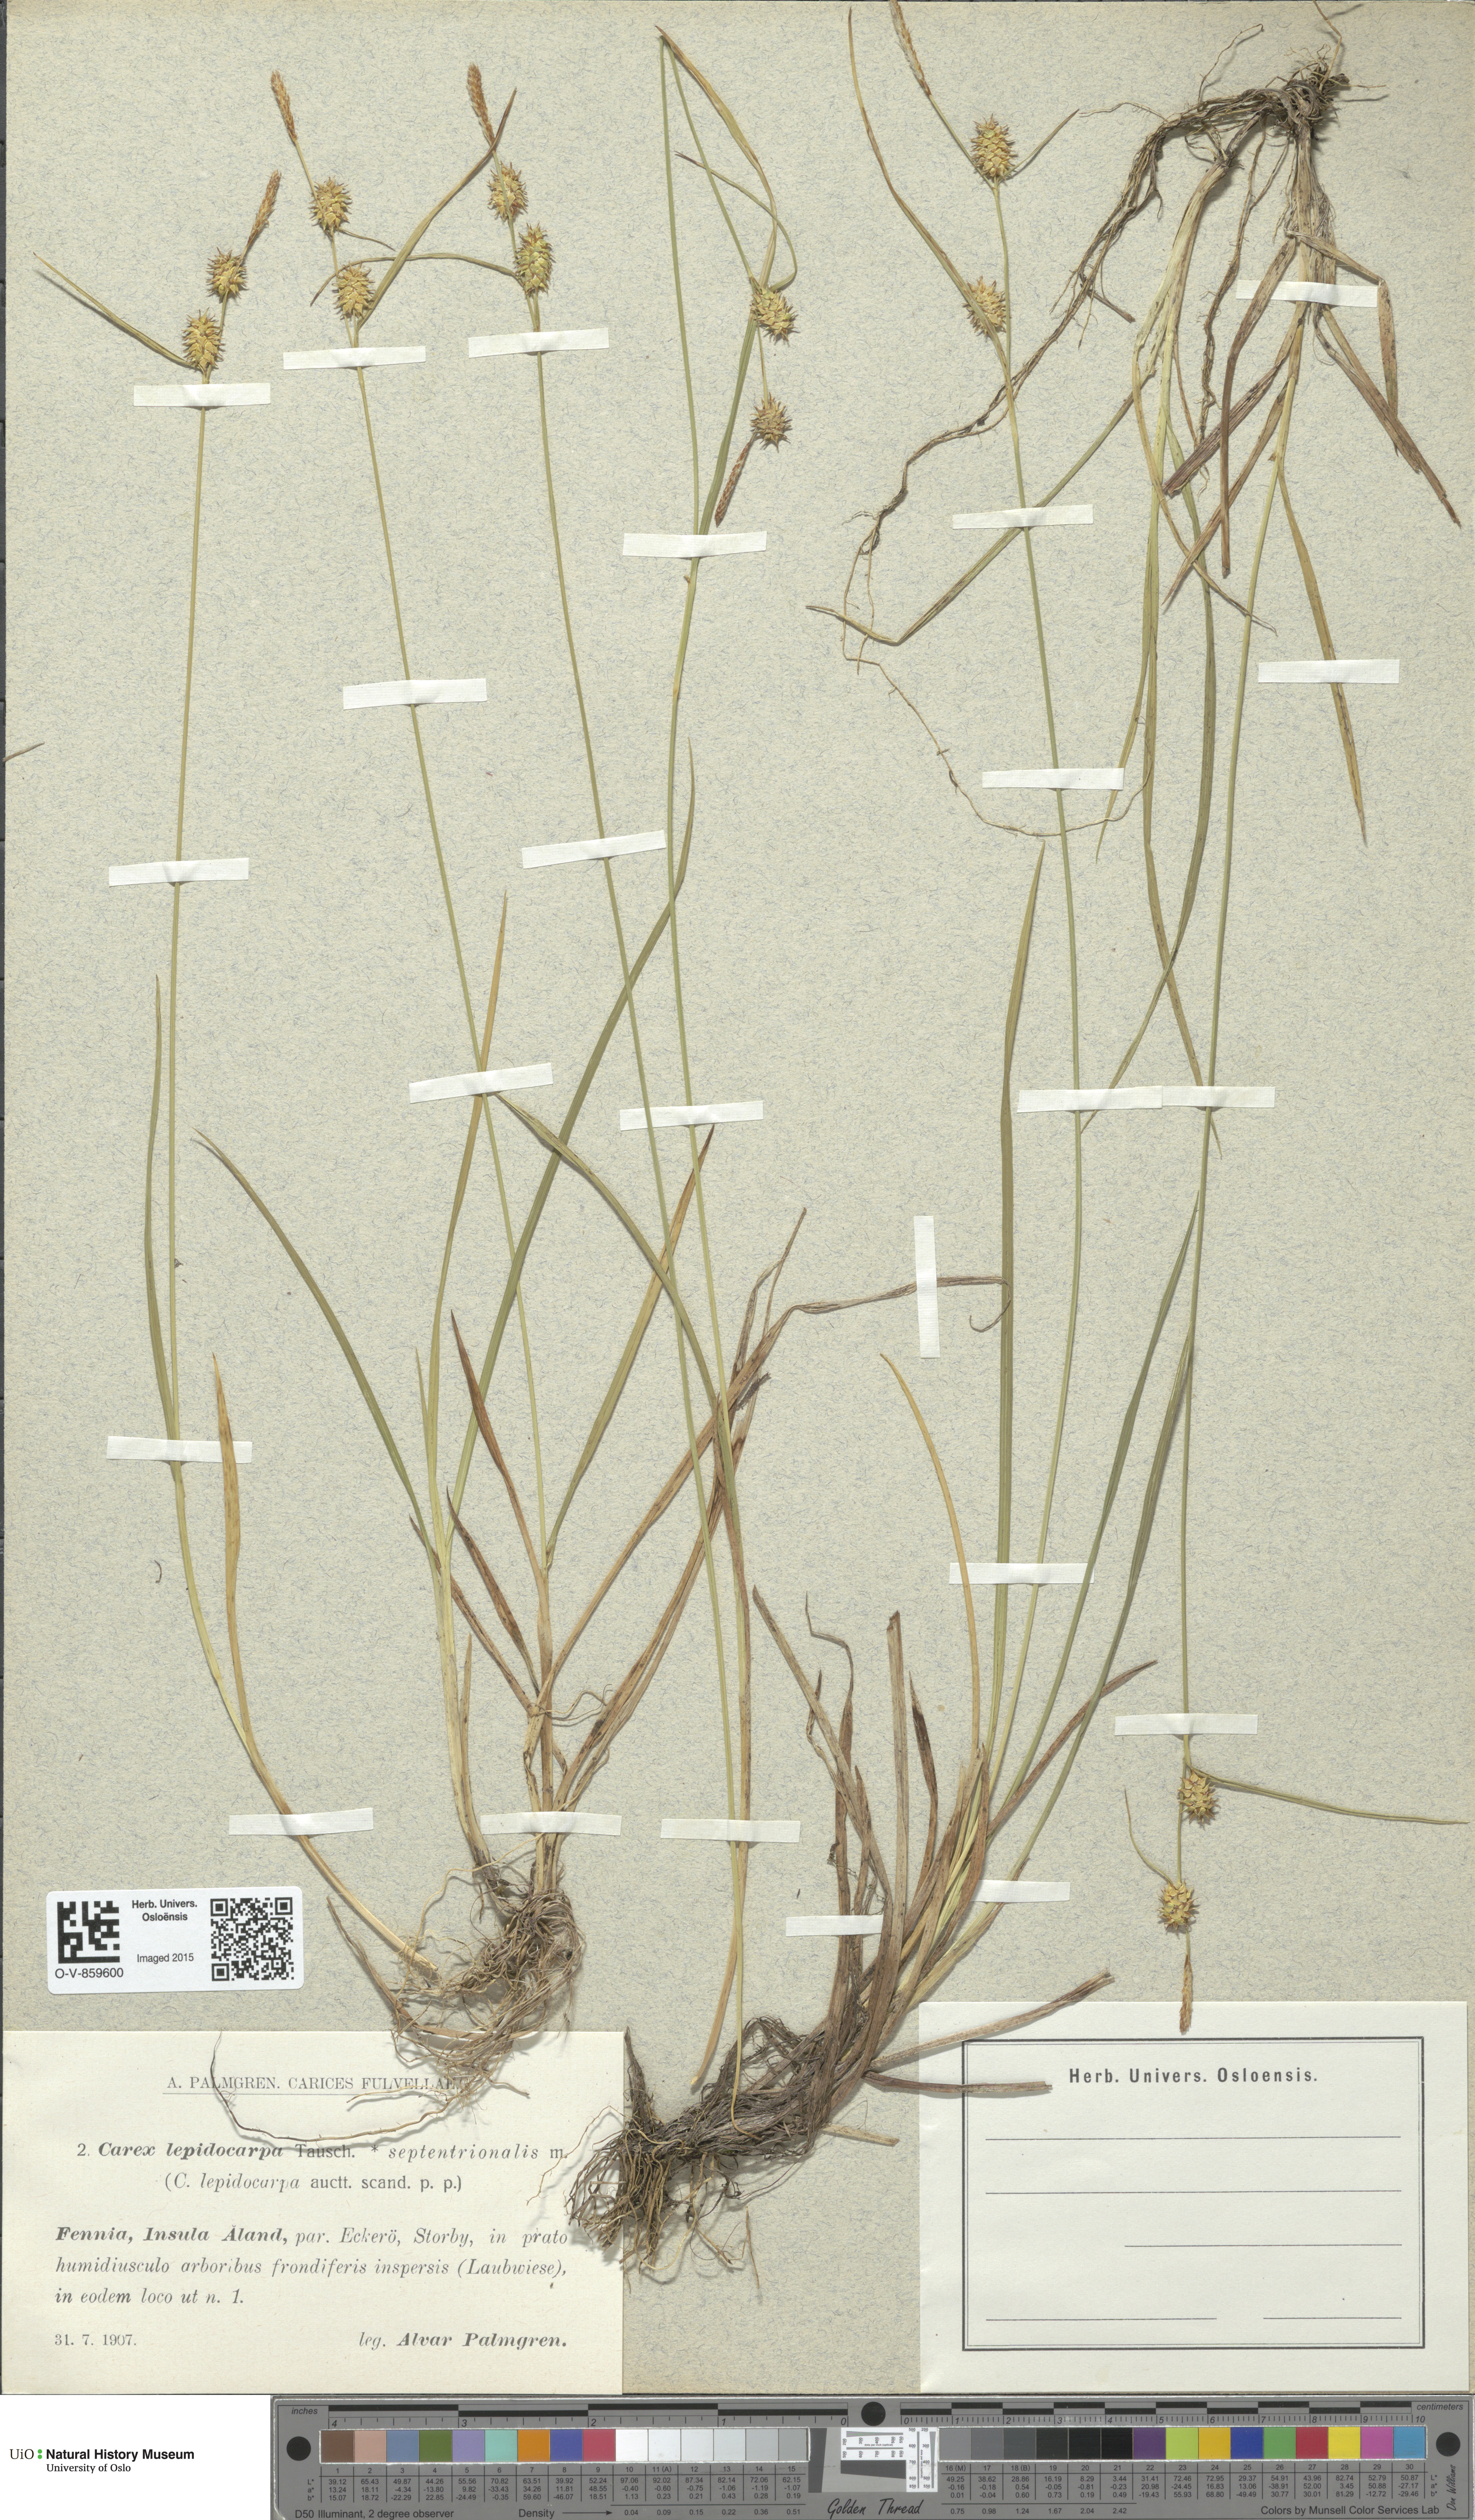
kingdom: Plantae
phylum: Tracheophyta
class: Liliopsida
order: Poales
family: Cyperaceae
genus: Carex
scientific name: Carex lepidocarpa
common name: Long-stalked yellow-sedge
